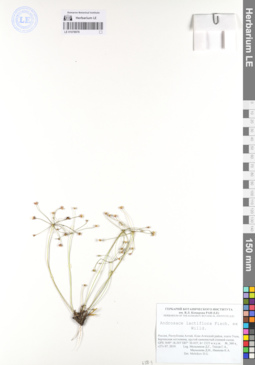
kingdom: Plantae
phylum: Tracheophyta
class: Magnoliopsida
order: Ericales
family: Primulaceae
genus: Androsace
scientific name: Androsace lactiflora
